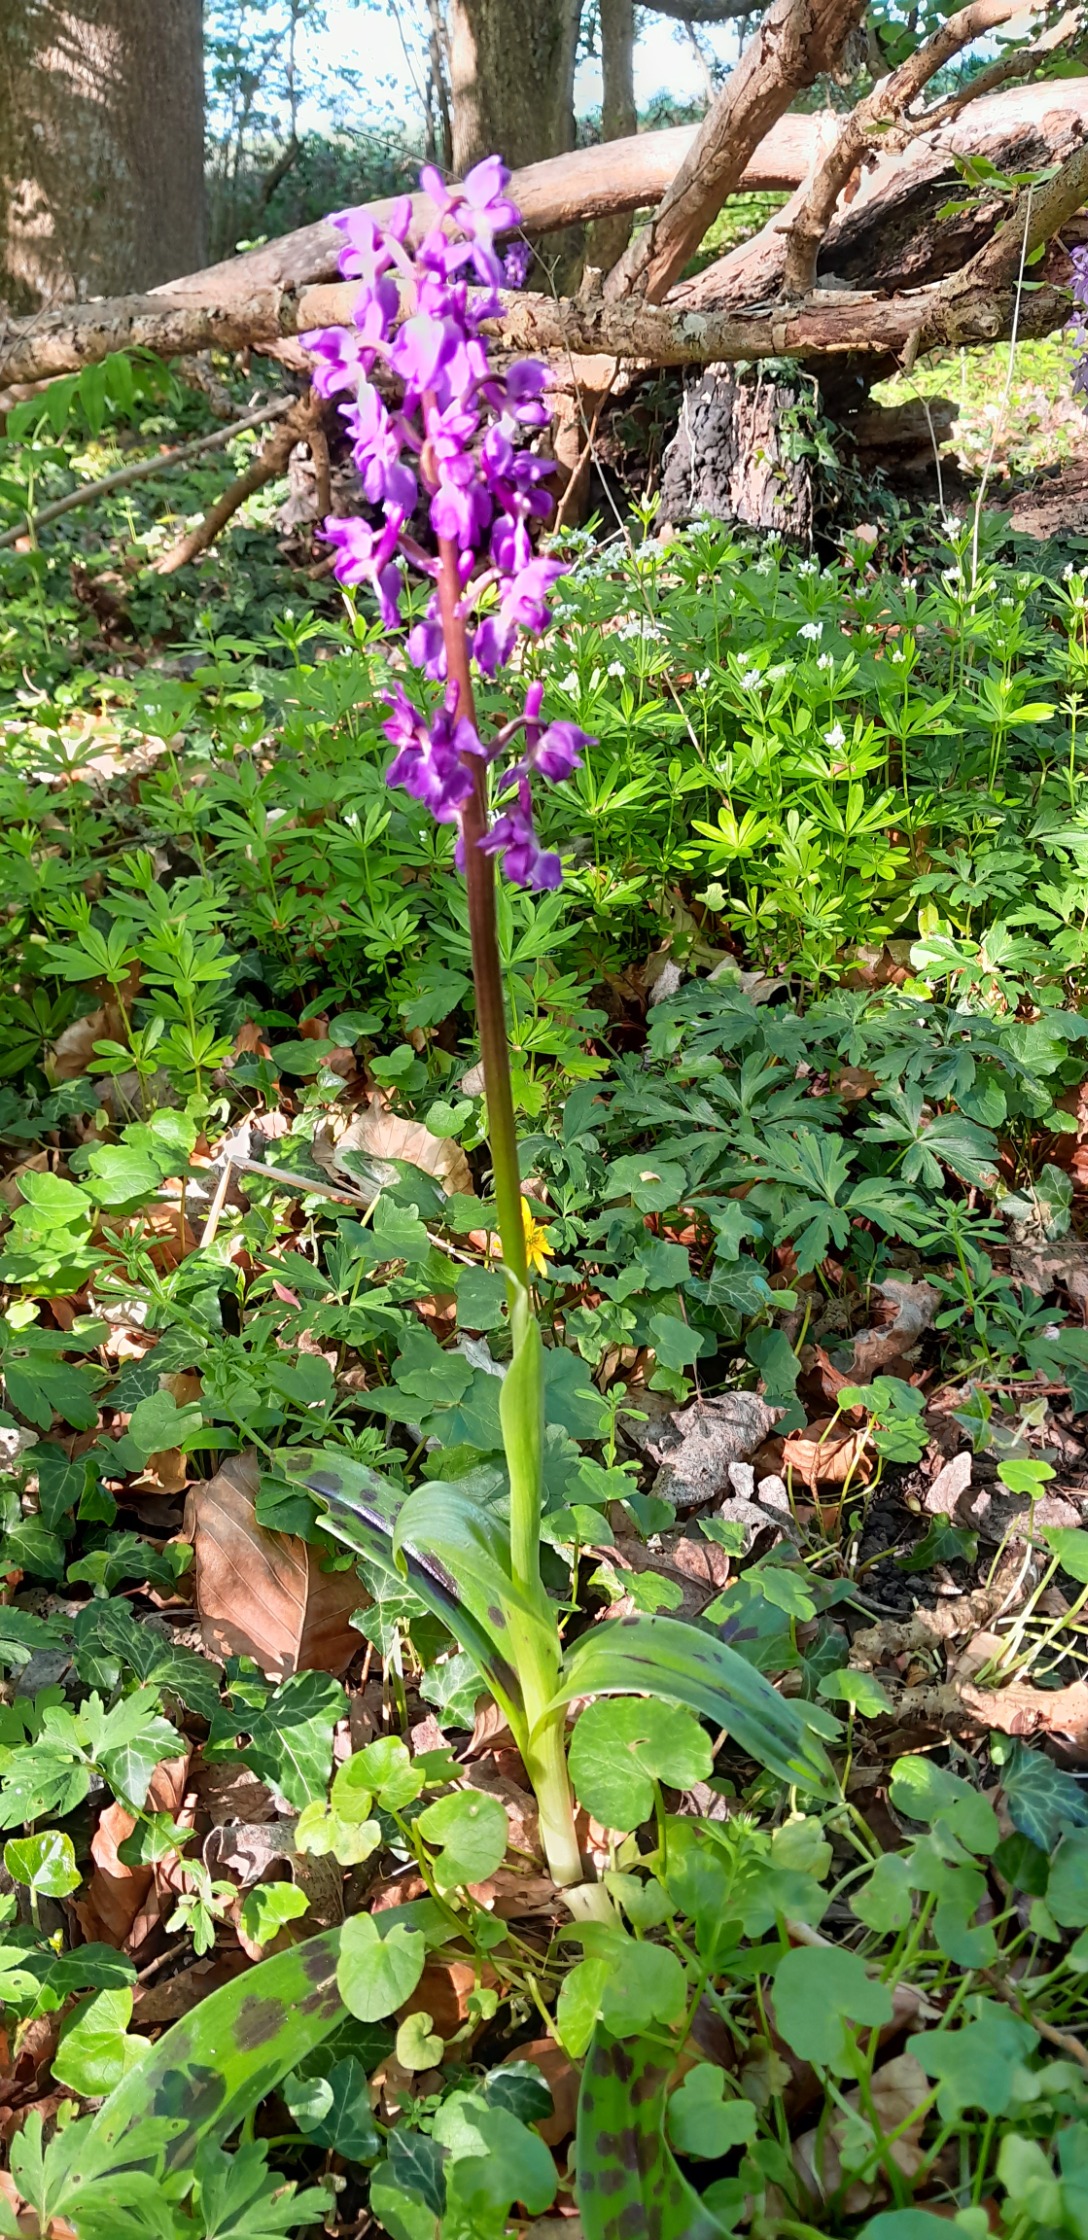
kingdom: Plantae
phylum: Tracheophyta
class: Liliopsida
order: Asparagales
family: Orchidaceae
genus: Orchis
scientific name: Orchis mascula
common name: Tyndakset gøgeurt
